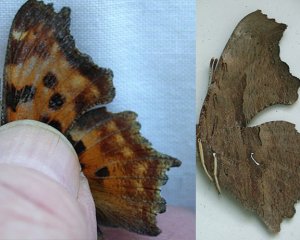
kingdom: Animalia
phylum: Arthropoda
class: Insecta
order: Lepidoptera
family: Nymphalidae
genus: Polygonia
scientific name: Polygonia satyrus
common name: Satyr Comma
